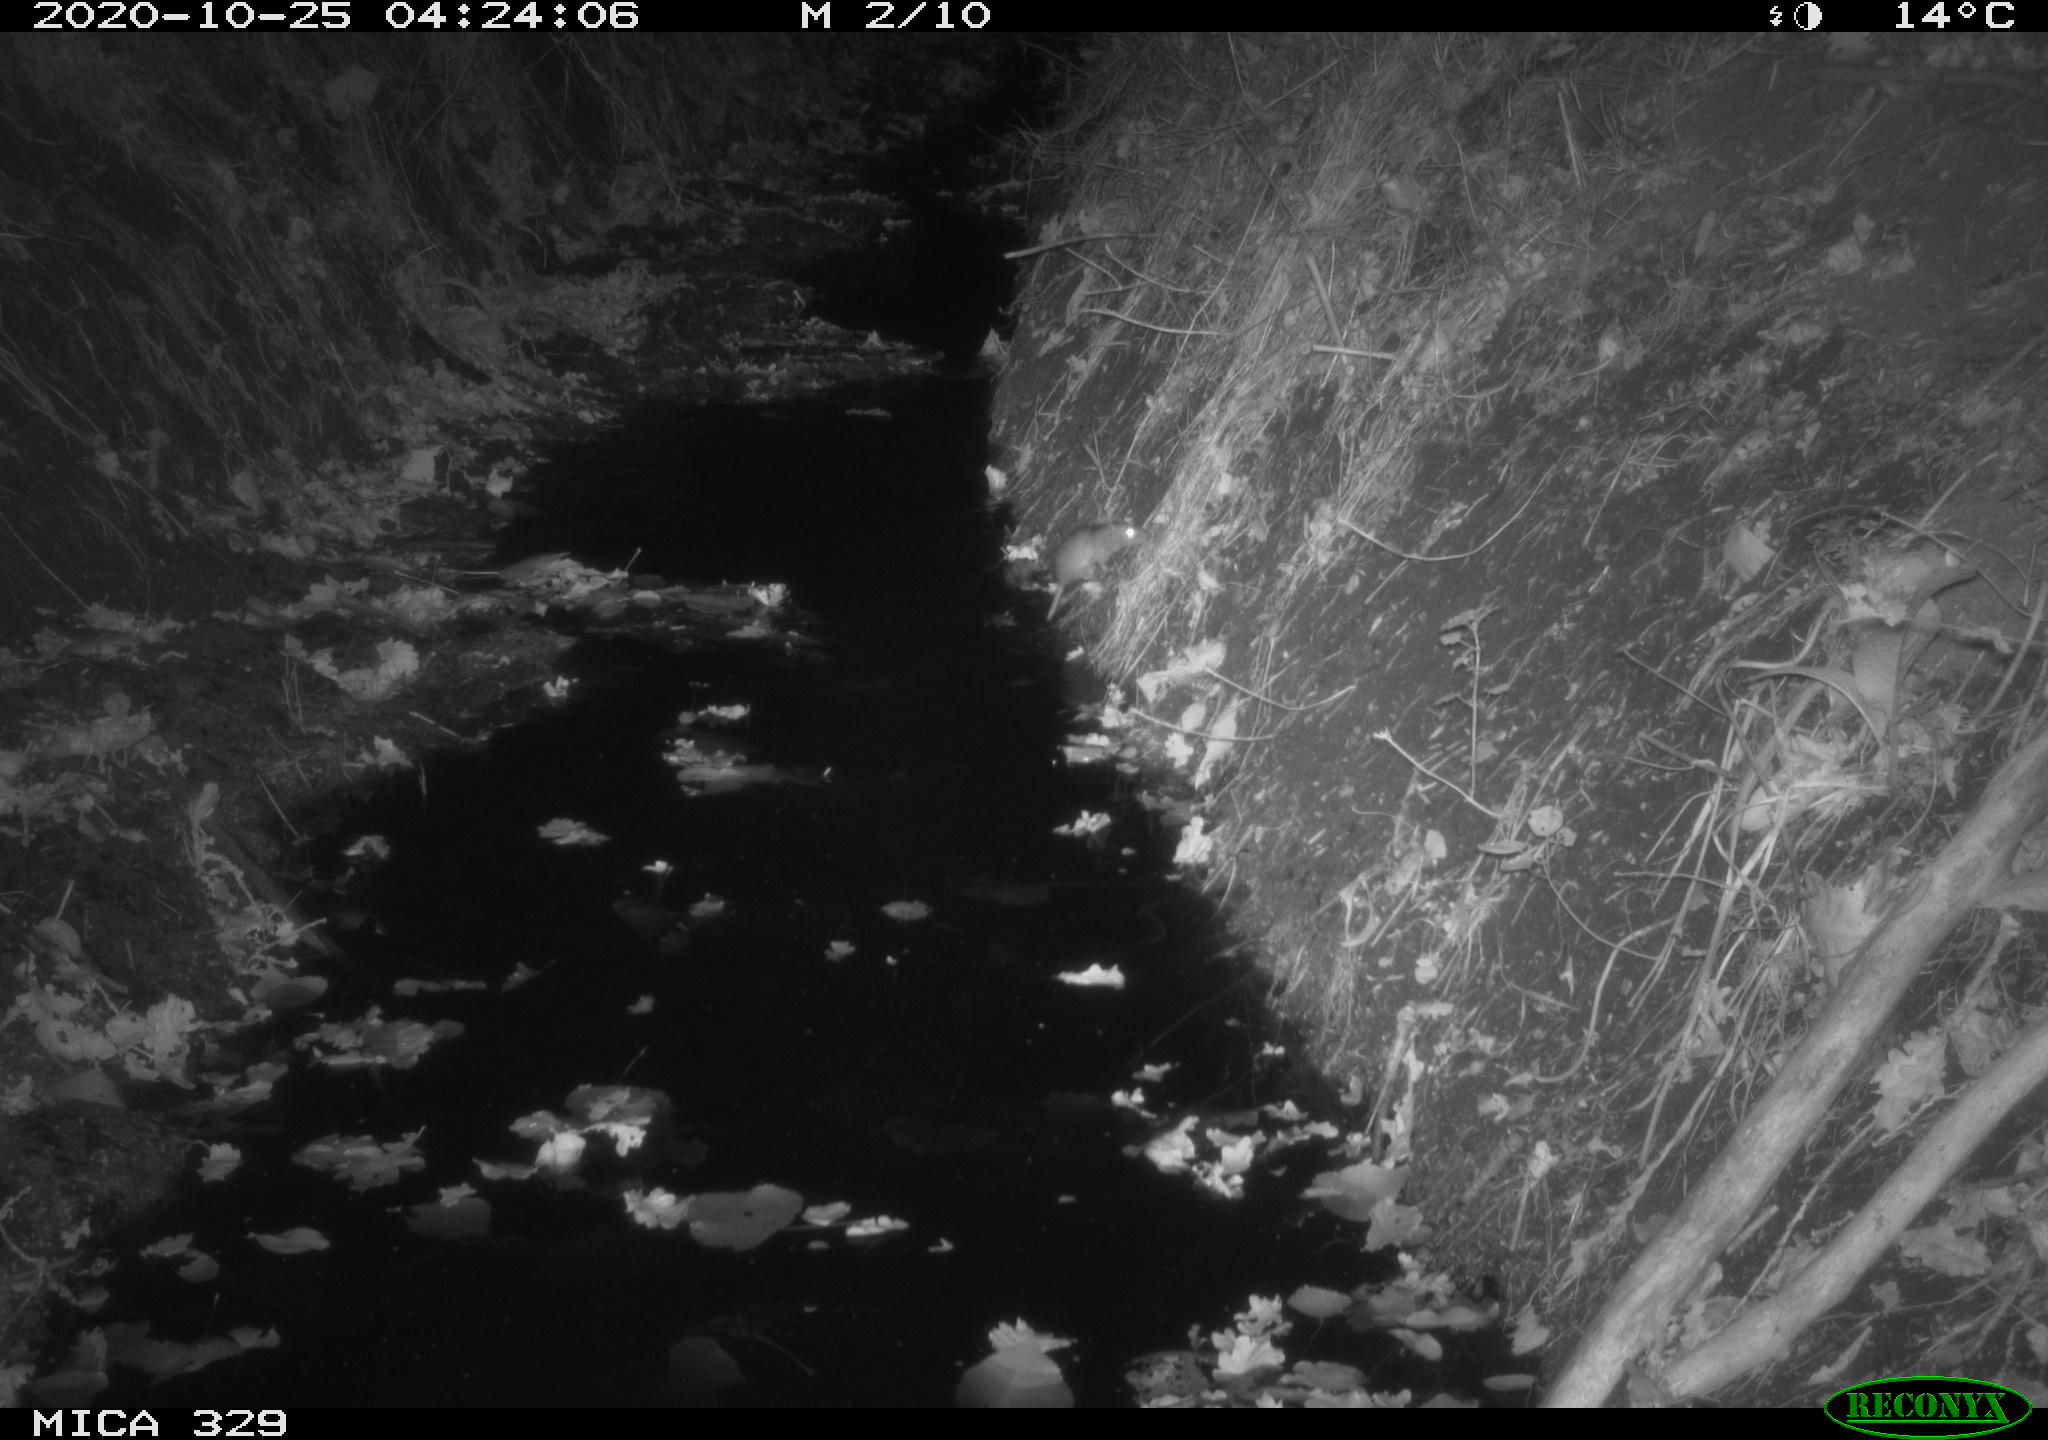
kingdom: Animalia
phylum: Chordata
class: Mammalia
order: Rodentia
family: Muridae
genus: Rattus
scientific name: Rattus norvegicus
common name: Brown rat
